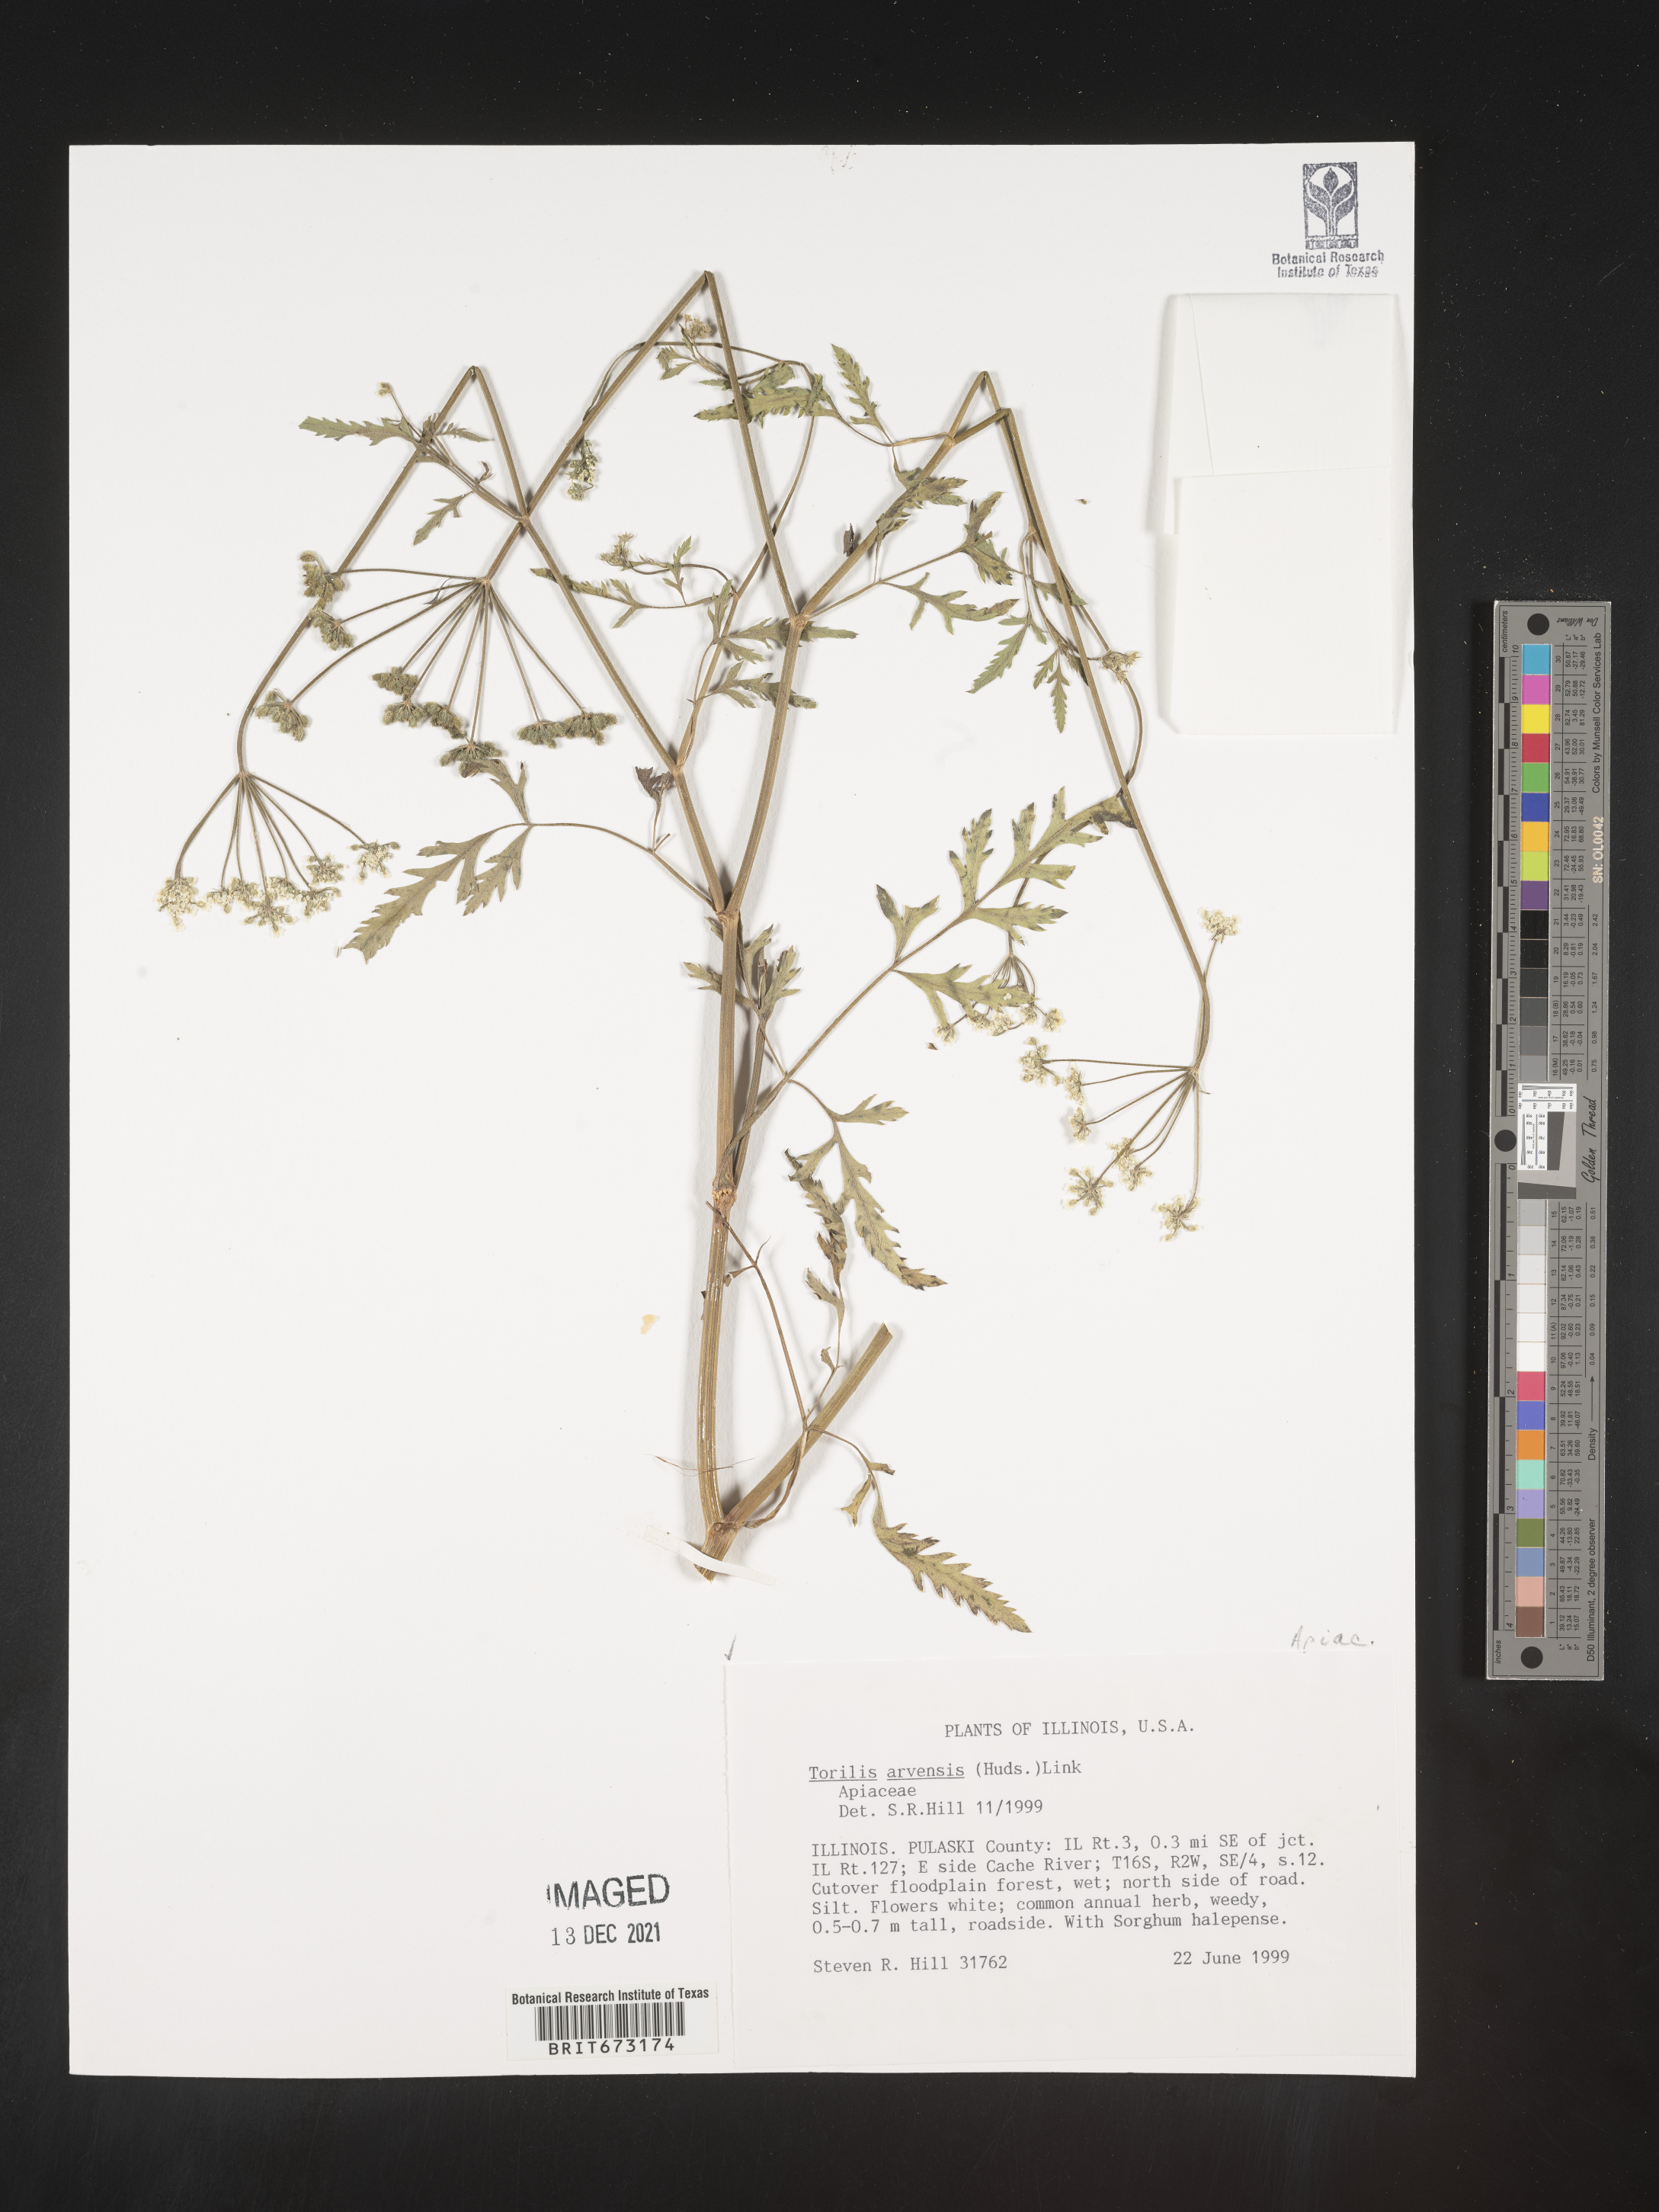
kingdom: Plantae
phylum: Tracheophyta
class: Magnoliopsida
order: Apiales
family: Apiaceae
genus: Torilis
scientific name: Torilis arvensis
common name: Spreading hedge-parsley
